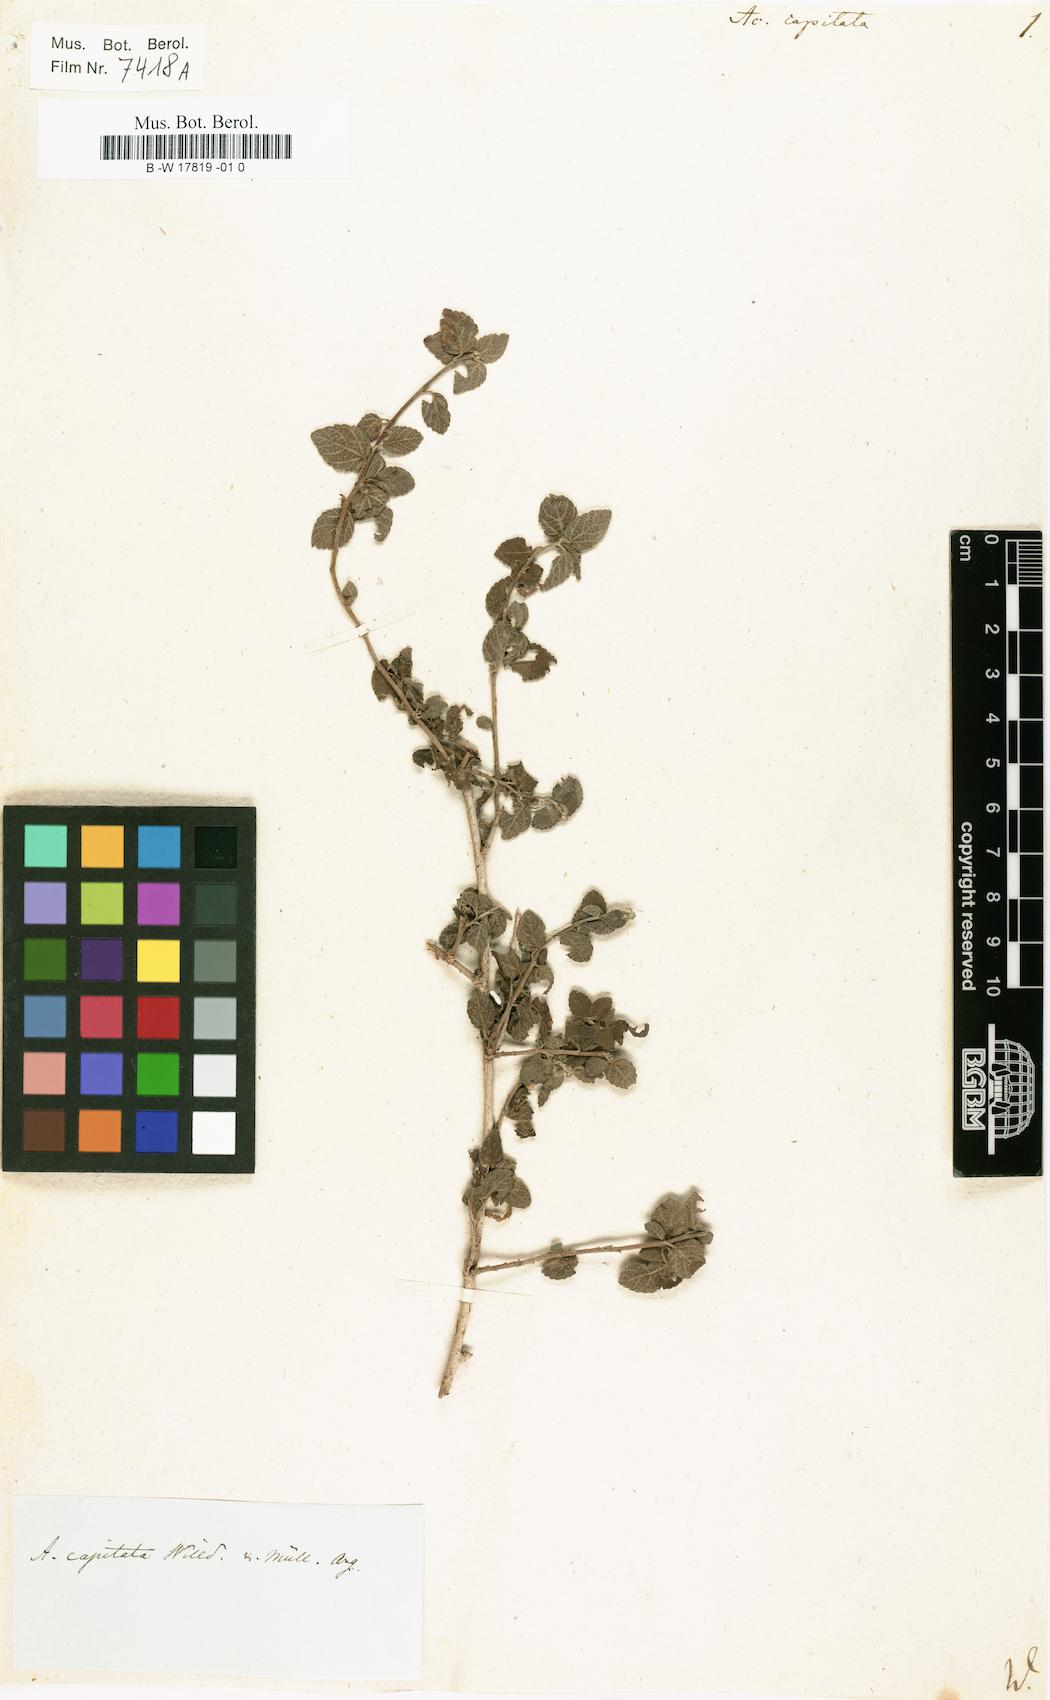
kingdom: Plantae
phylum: Tracheophyta
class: Magnoliopsida
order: Malpighiales
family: Euphorbiaceae
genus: Acalypha
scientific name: Acalypha capitata
